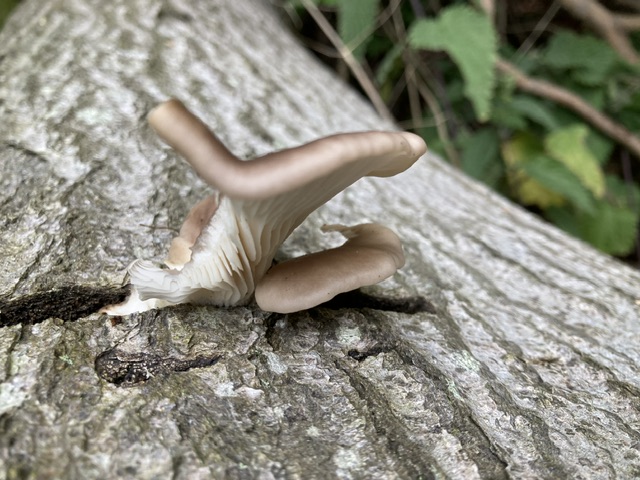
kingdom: Fungi
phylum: Basidiomycota
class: Agaricomycetes
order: Agaricales
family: Pleurotaceae
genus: Pleurotus
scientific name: Pleurotus pulmonarius
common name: sommer-østershat
